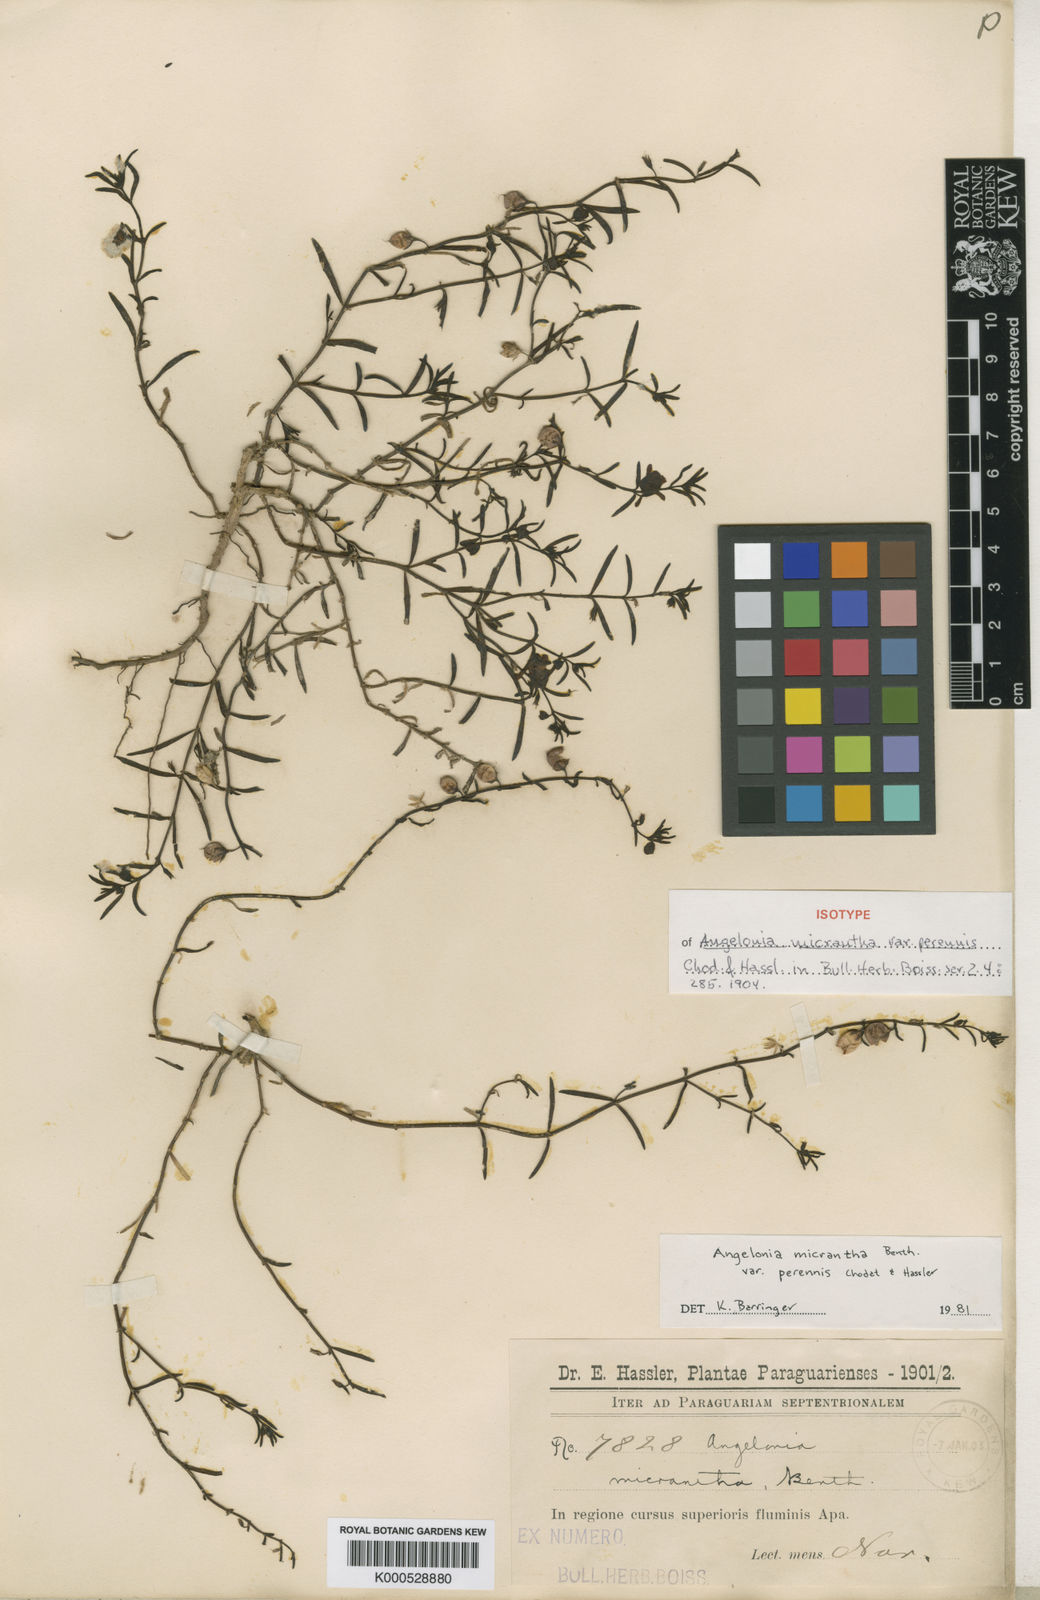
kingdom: Plantae
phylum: Tracheophyta
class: Magnoliopsida
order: Lamiales
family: Plantaginaceae
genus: Angelonia
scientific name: Angelonia perennis
